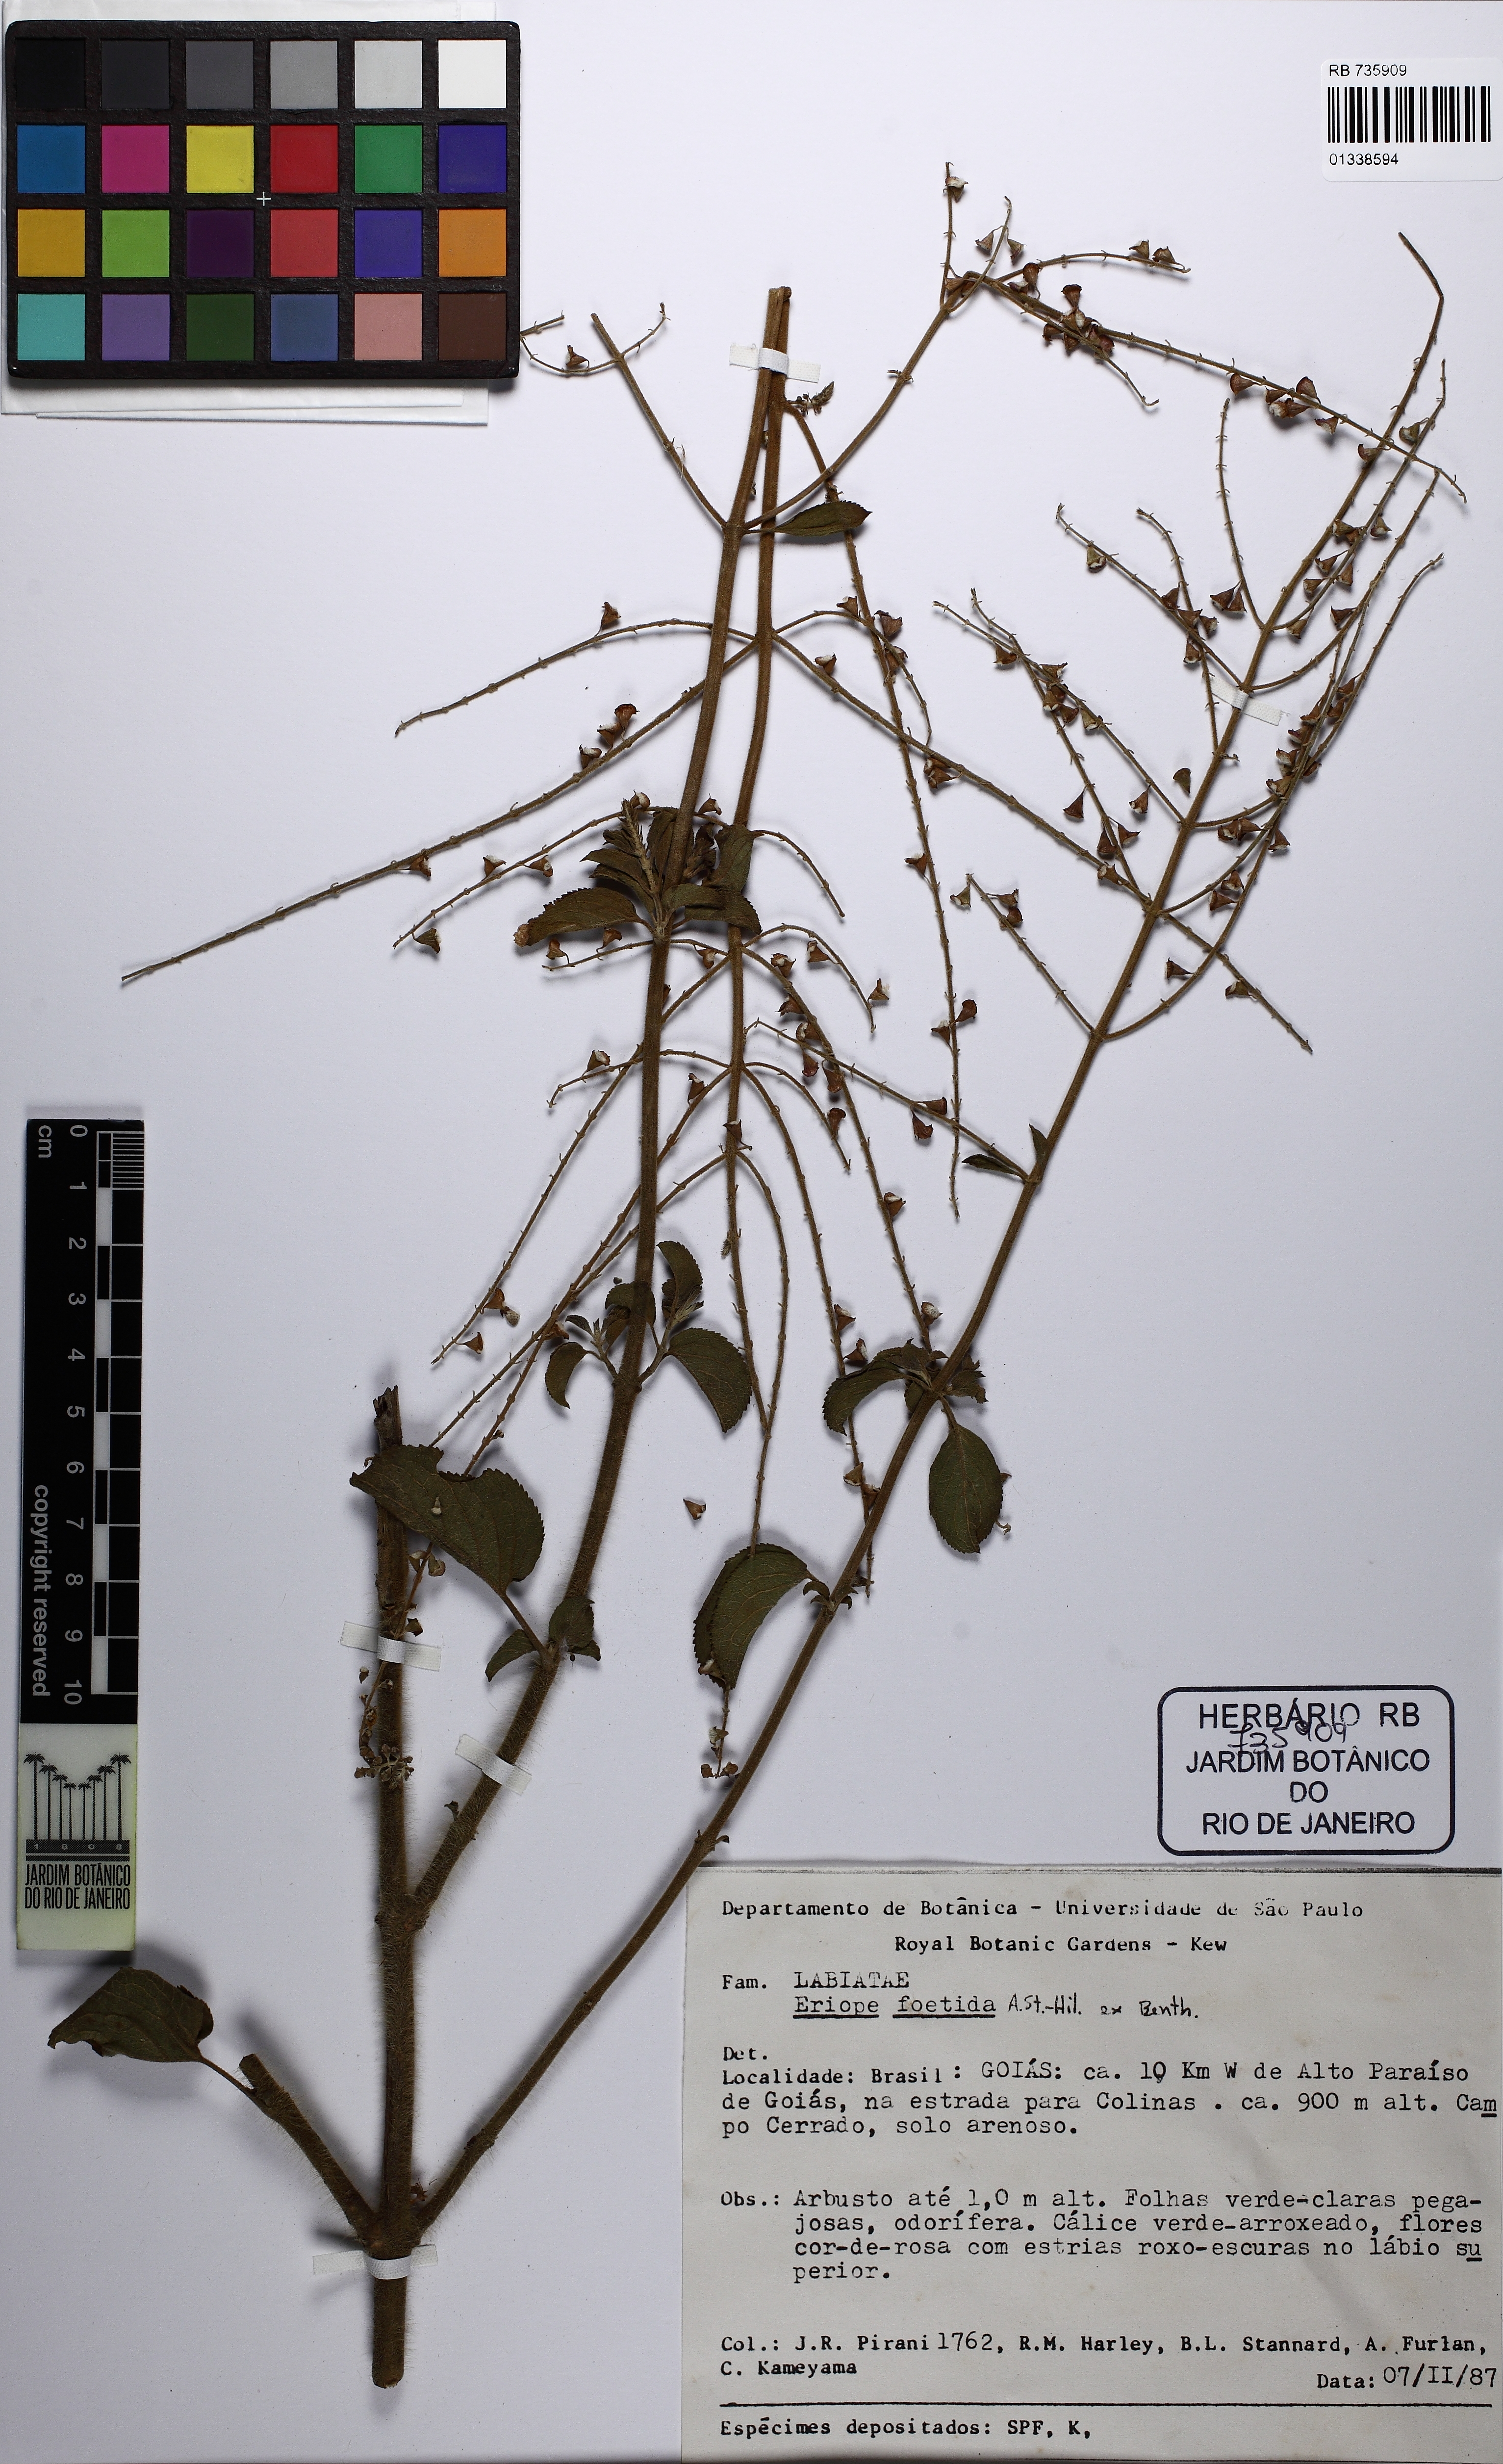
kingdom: Plantae
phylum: Tracheophyta
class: Magnoliopsida
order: Lamiales
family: Lamiaceae
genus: Eriope
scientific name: Eriope foetida
